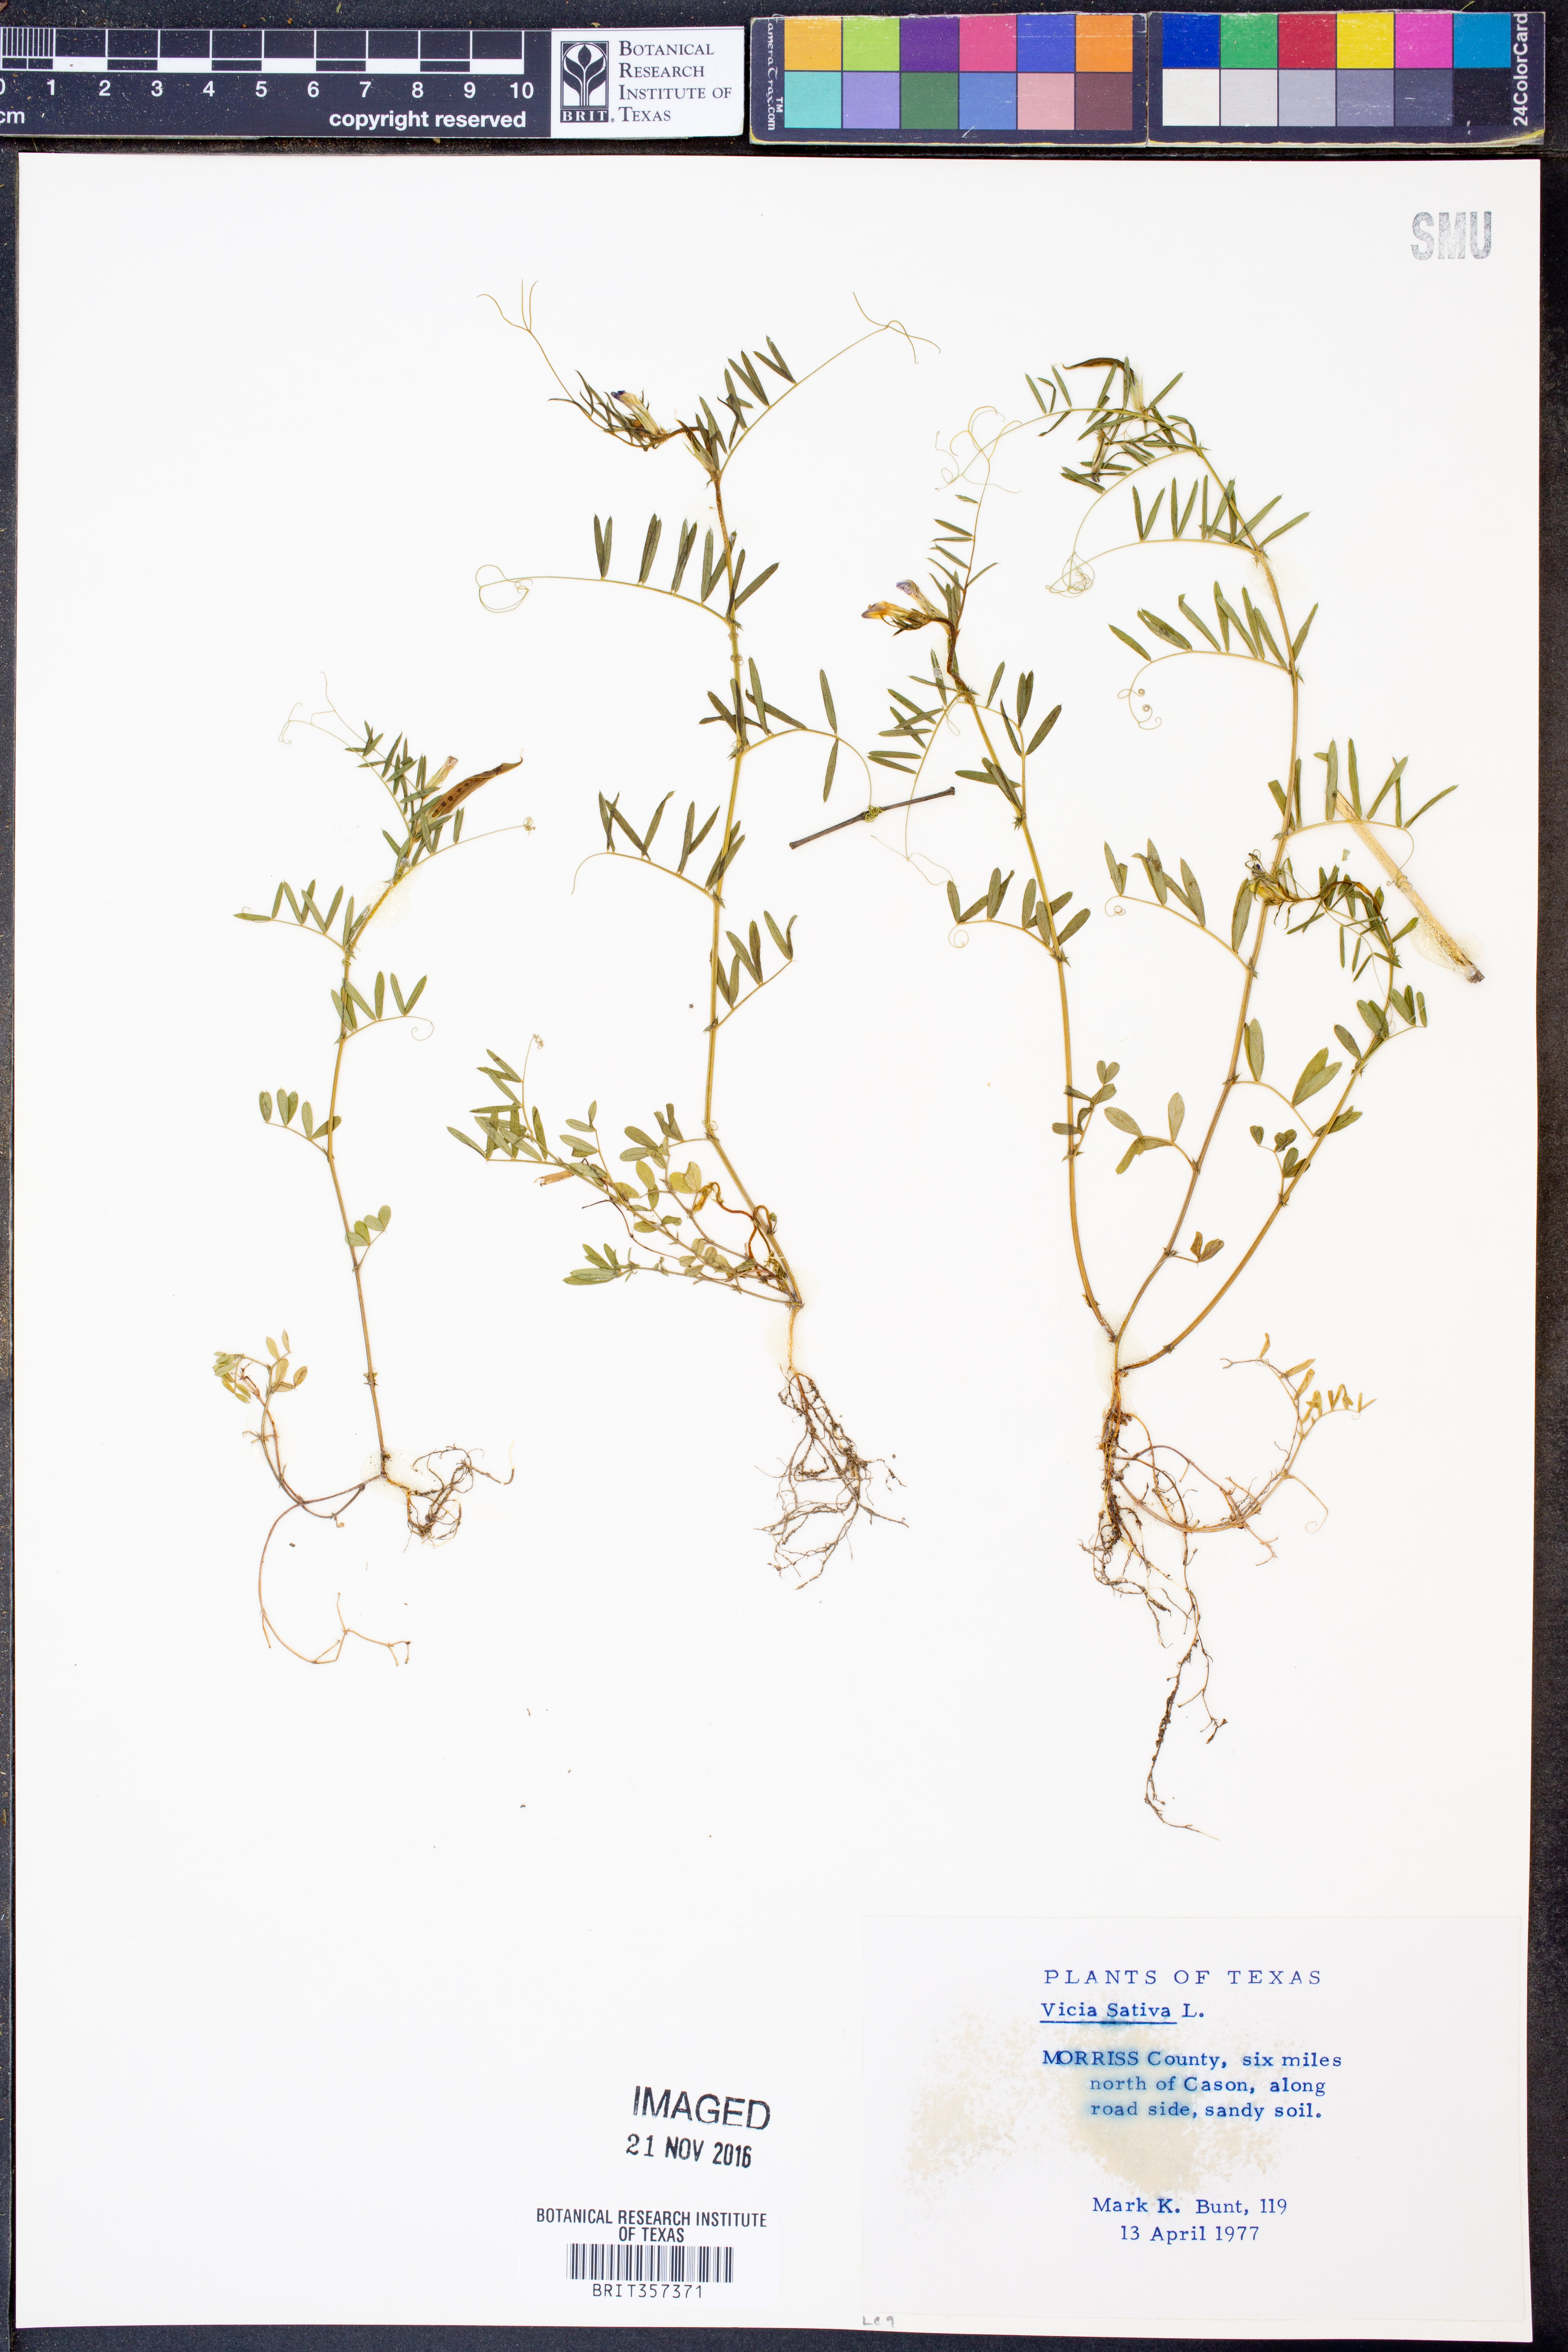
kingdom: Plantae
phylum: Tracheophyta
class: Magnoliopsida
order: Fabales
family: Fabaceae
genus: Vicia
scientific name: Vicia sativa
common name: Garden vetch
